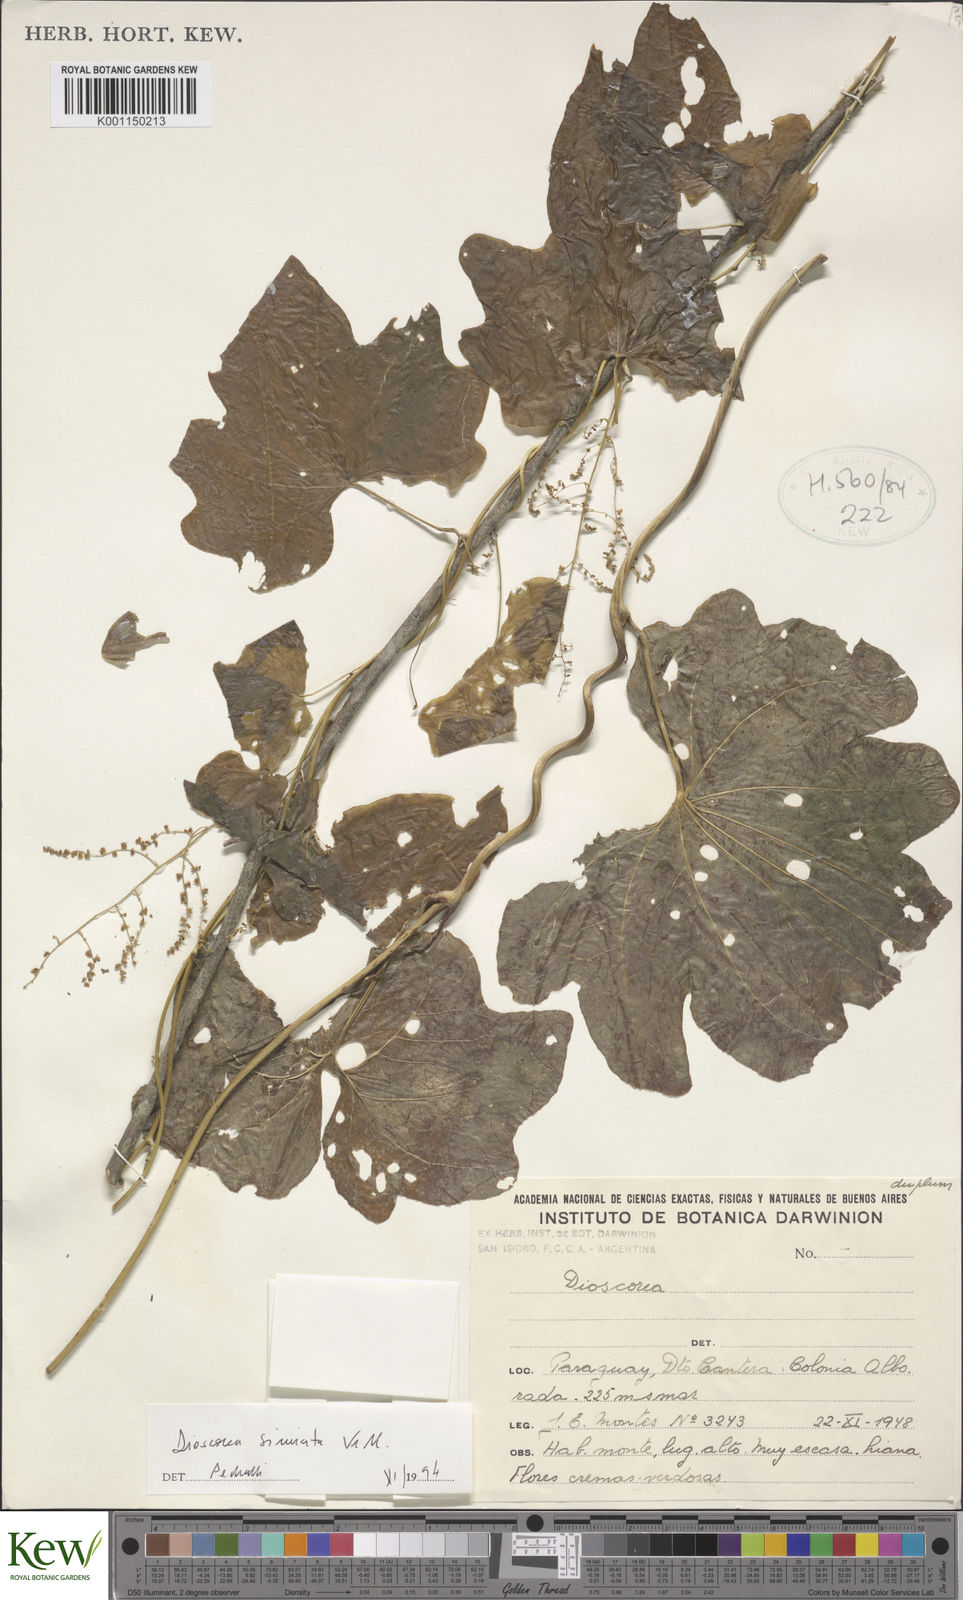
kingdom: Plantae
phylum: Tracheophyta
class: Liliopsida
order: Dioscoreales
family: Dioscoreaceae
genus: Dioscorea
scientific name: Dioscorea sinuata
